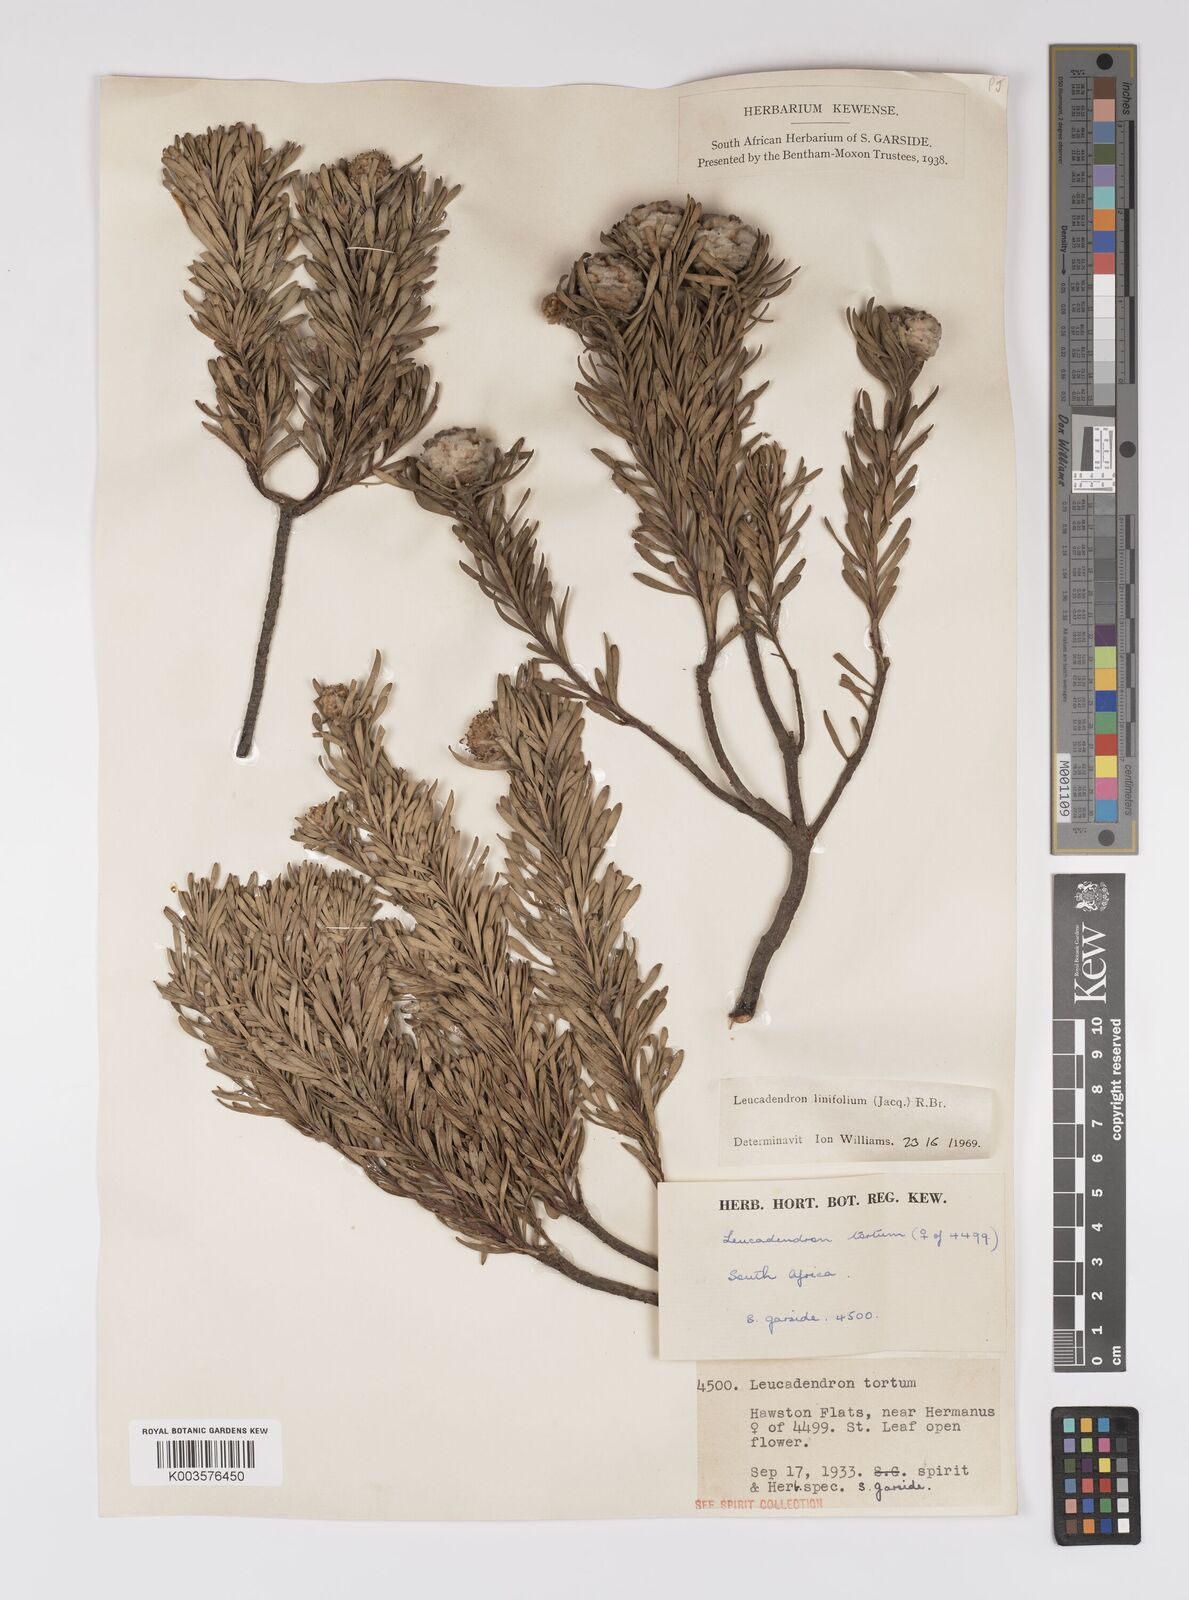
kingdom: Plantae
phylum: Tracheophyta
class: Magnoliopsida
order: Proteales
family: Proteaceae
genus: Leucadendron
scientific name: Leucadendron linifolium
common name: Line-leaf conebush
